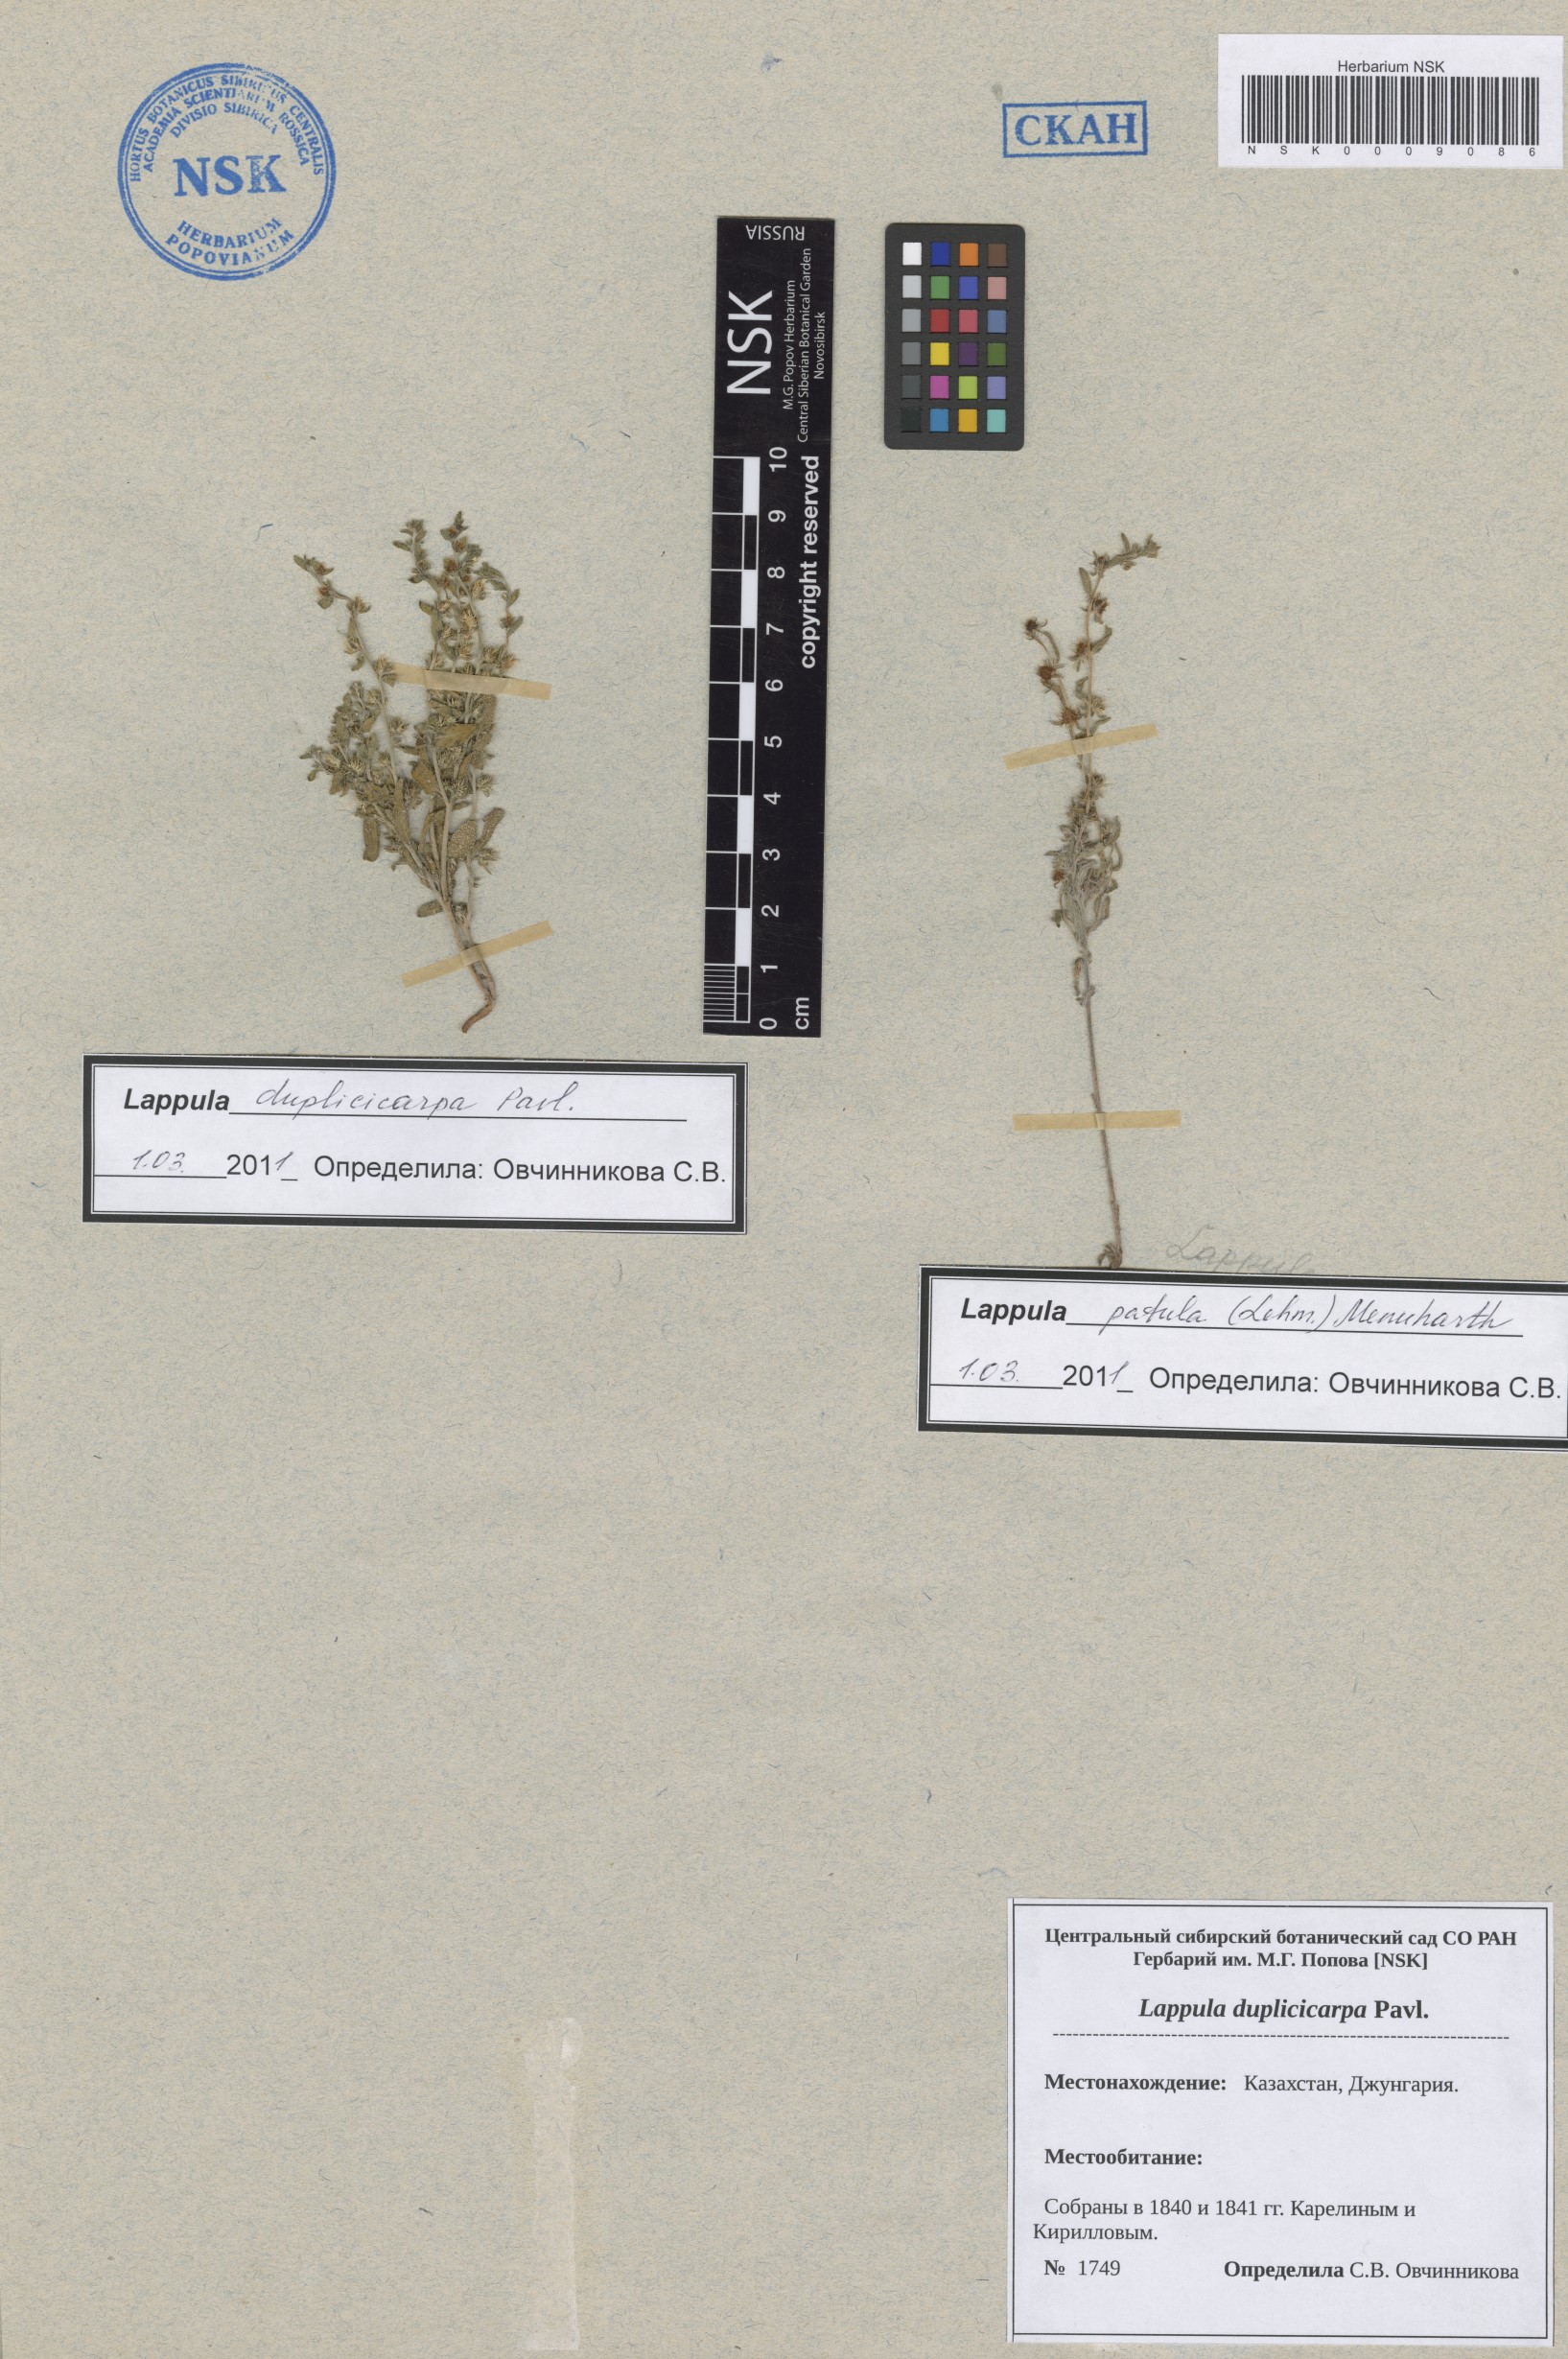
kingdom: Plantae
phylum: Tracheophyta
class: Magnoliopsida
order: Boraginales
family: Boraginaceae
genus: Lappula
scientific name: Lappula duplicicarpa
